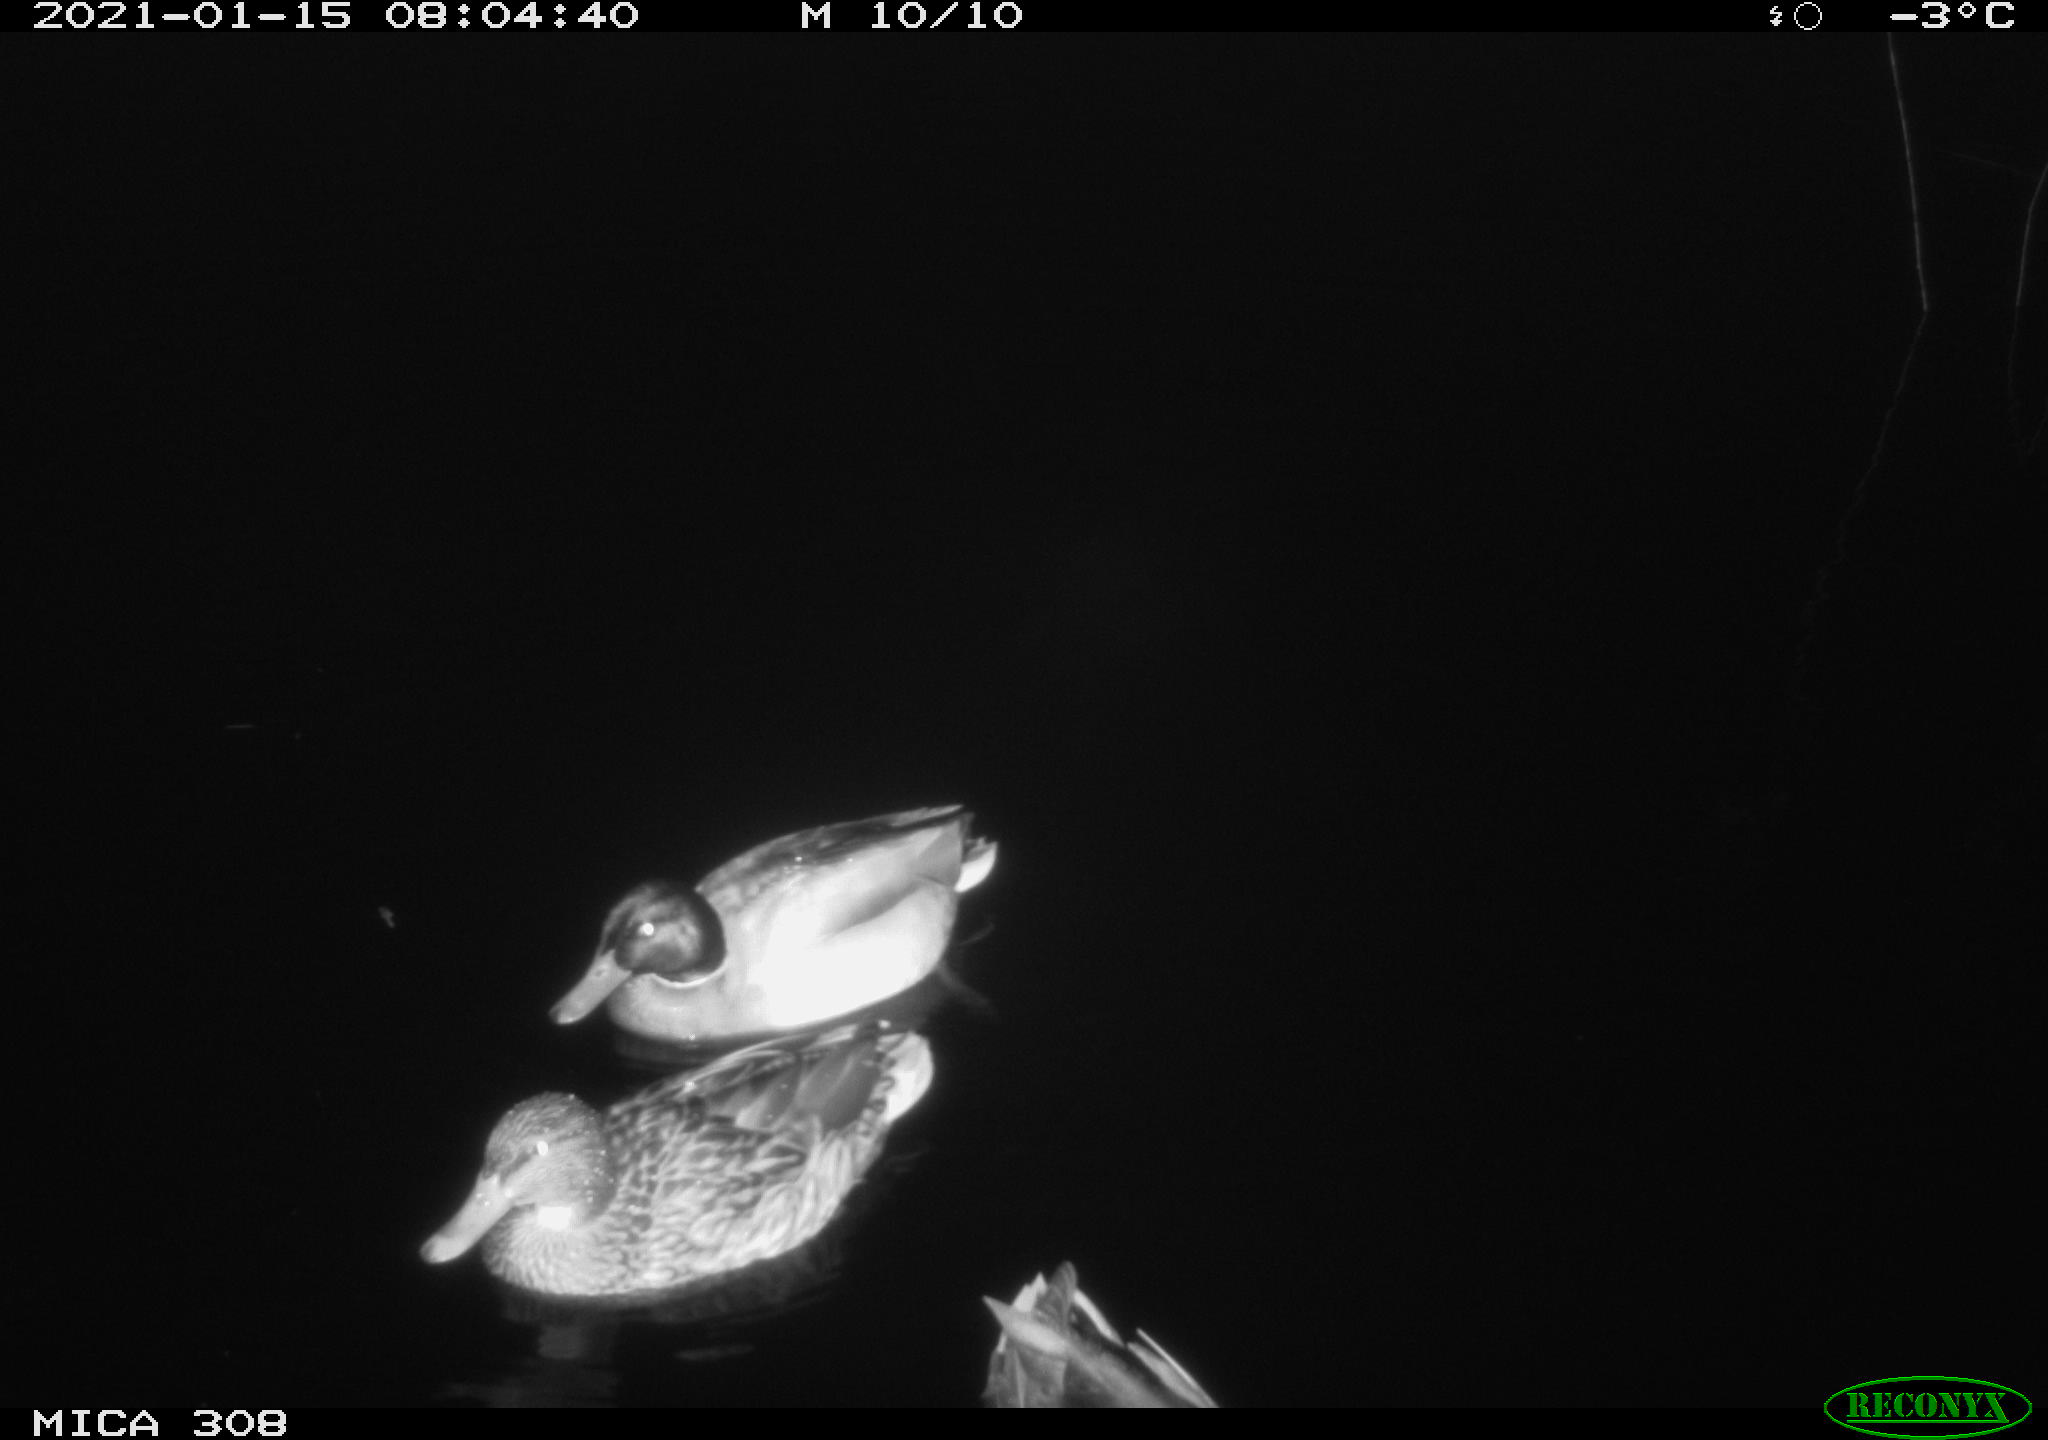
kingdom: Animalia
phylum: Chordata
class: Aves
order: Anseriformes
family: Anatidae
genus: Anas
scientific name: Anas platyrhynchos
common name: Mallard
